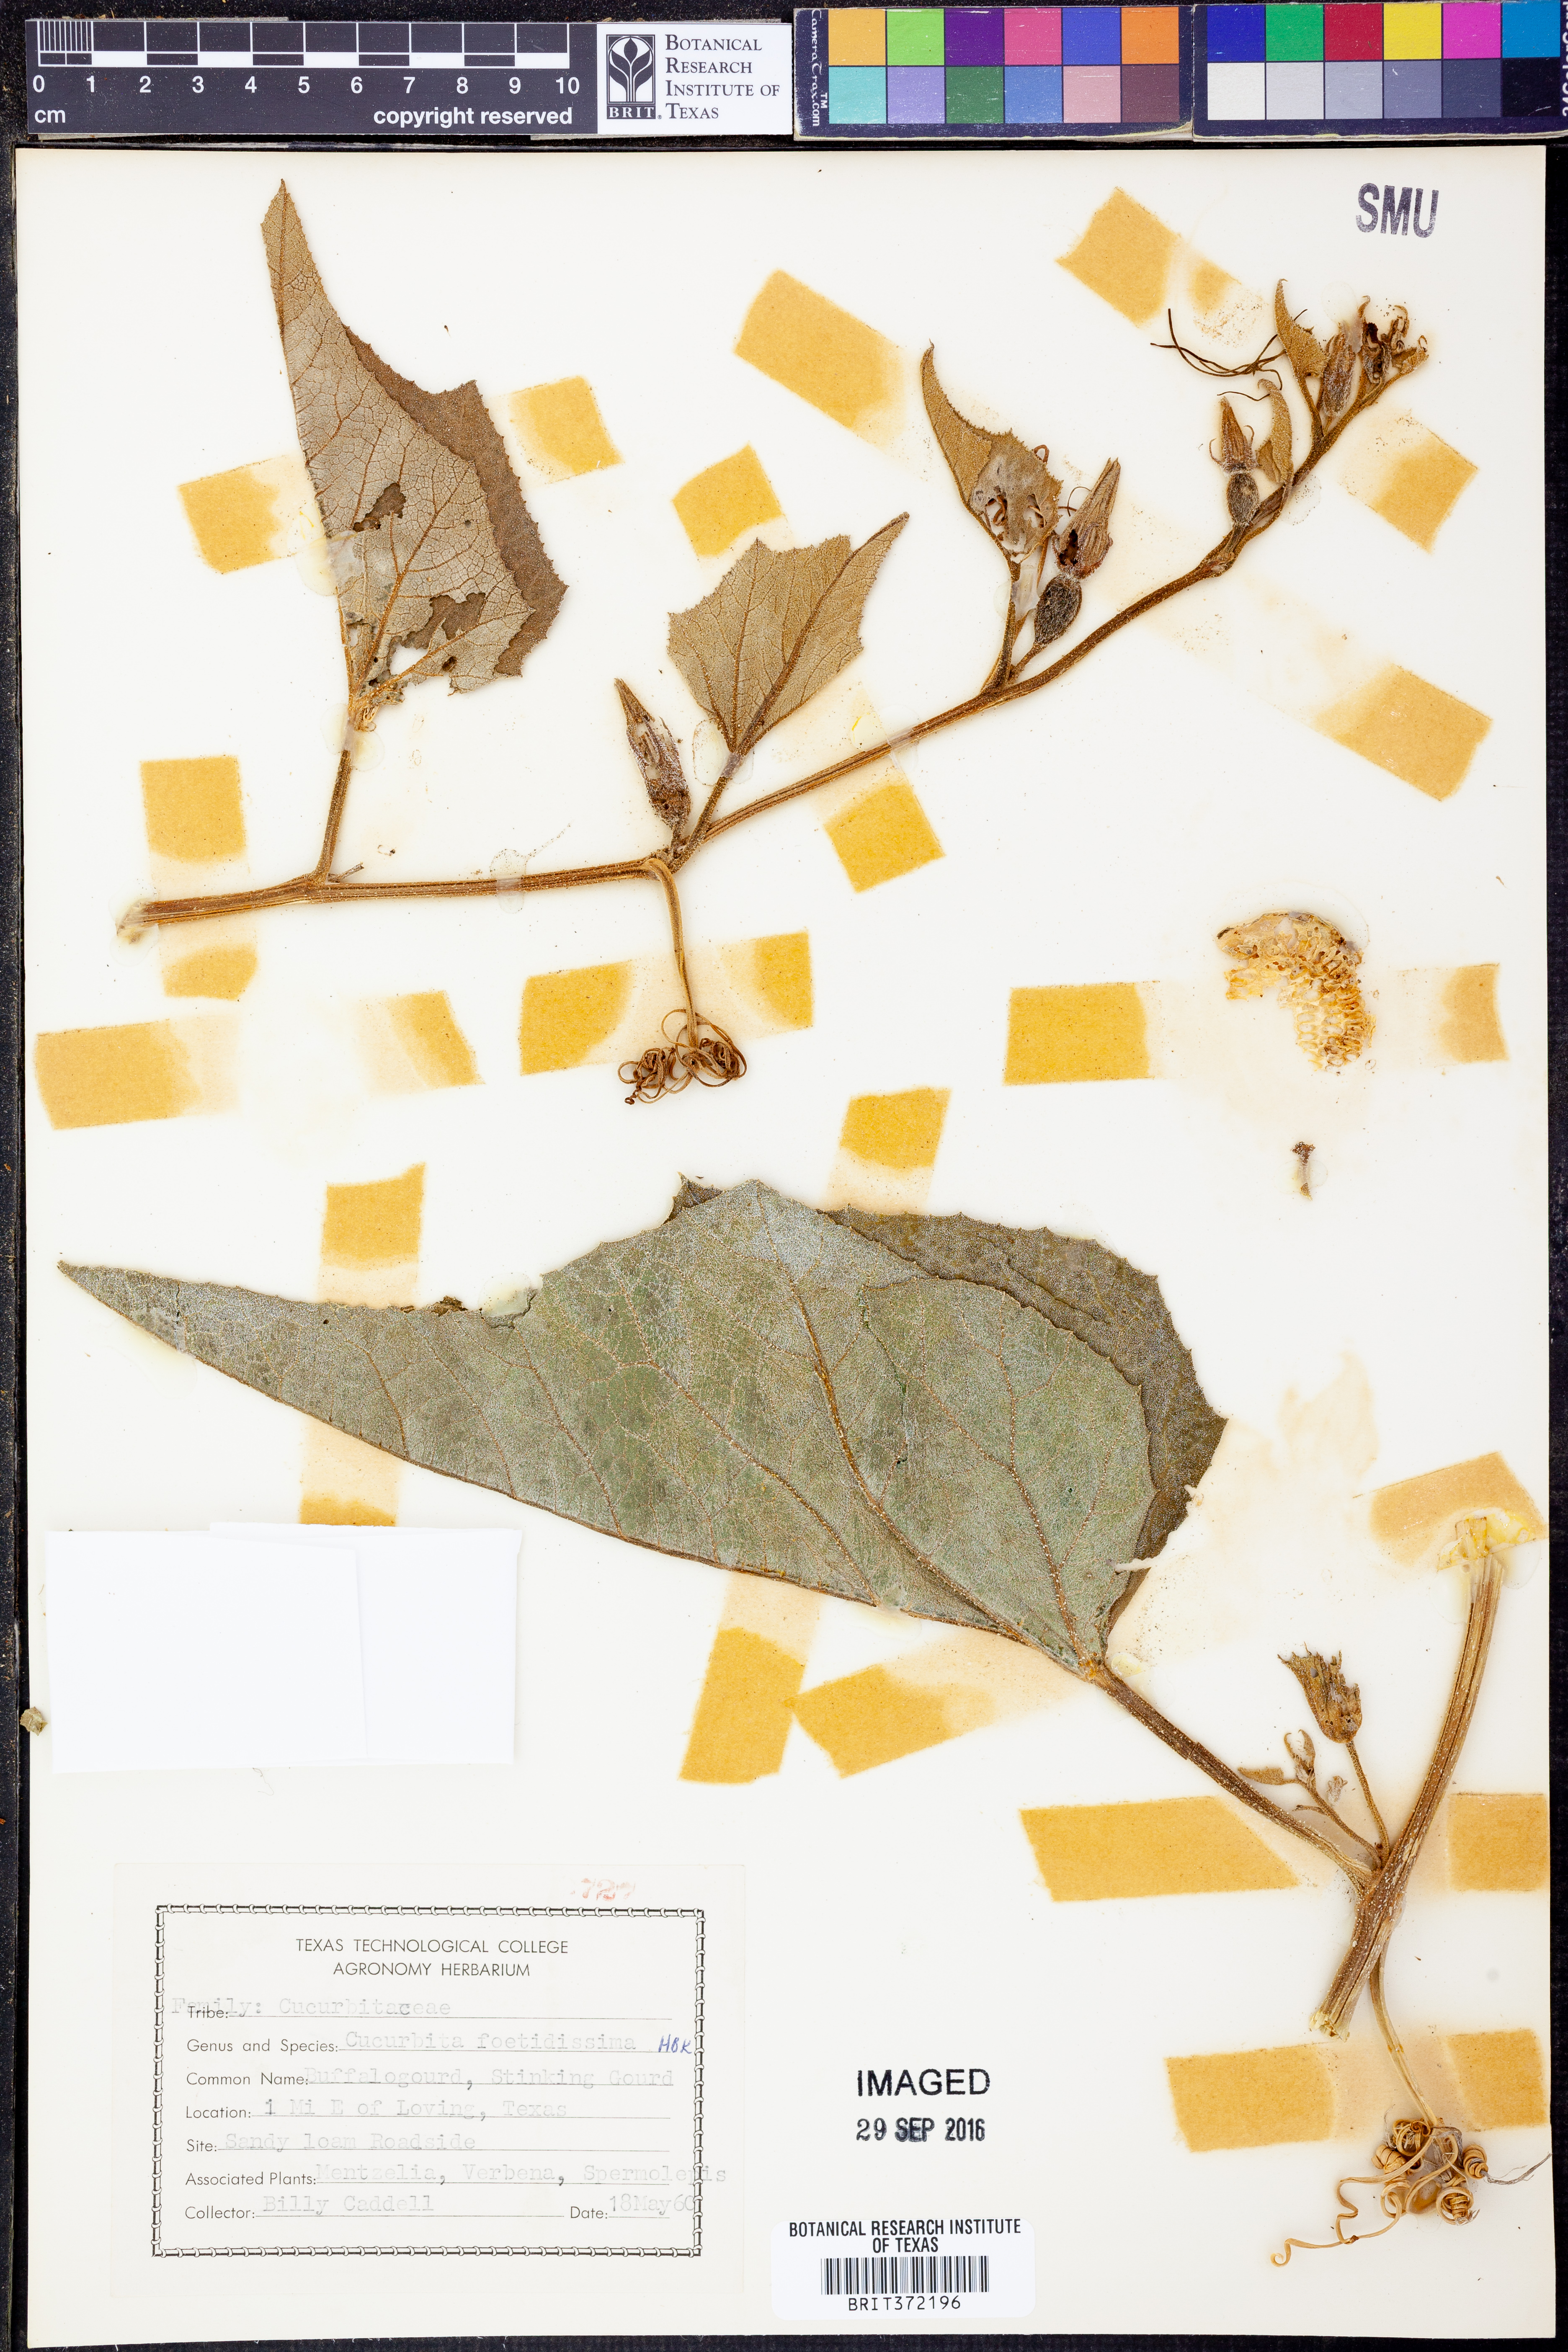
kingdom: Plantae
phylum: Tracheophyta
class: Magnoliopsida
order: Cucurbitales
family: Cucurbitaceae
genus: Cucurbita
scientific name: Cucurbita foetidissima
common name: Buffalo gourd
